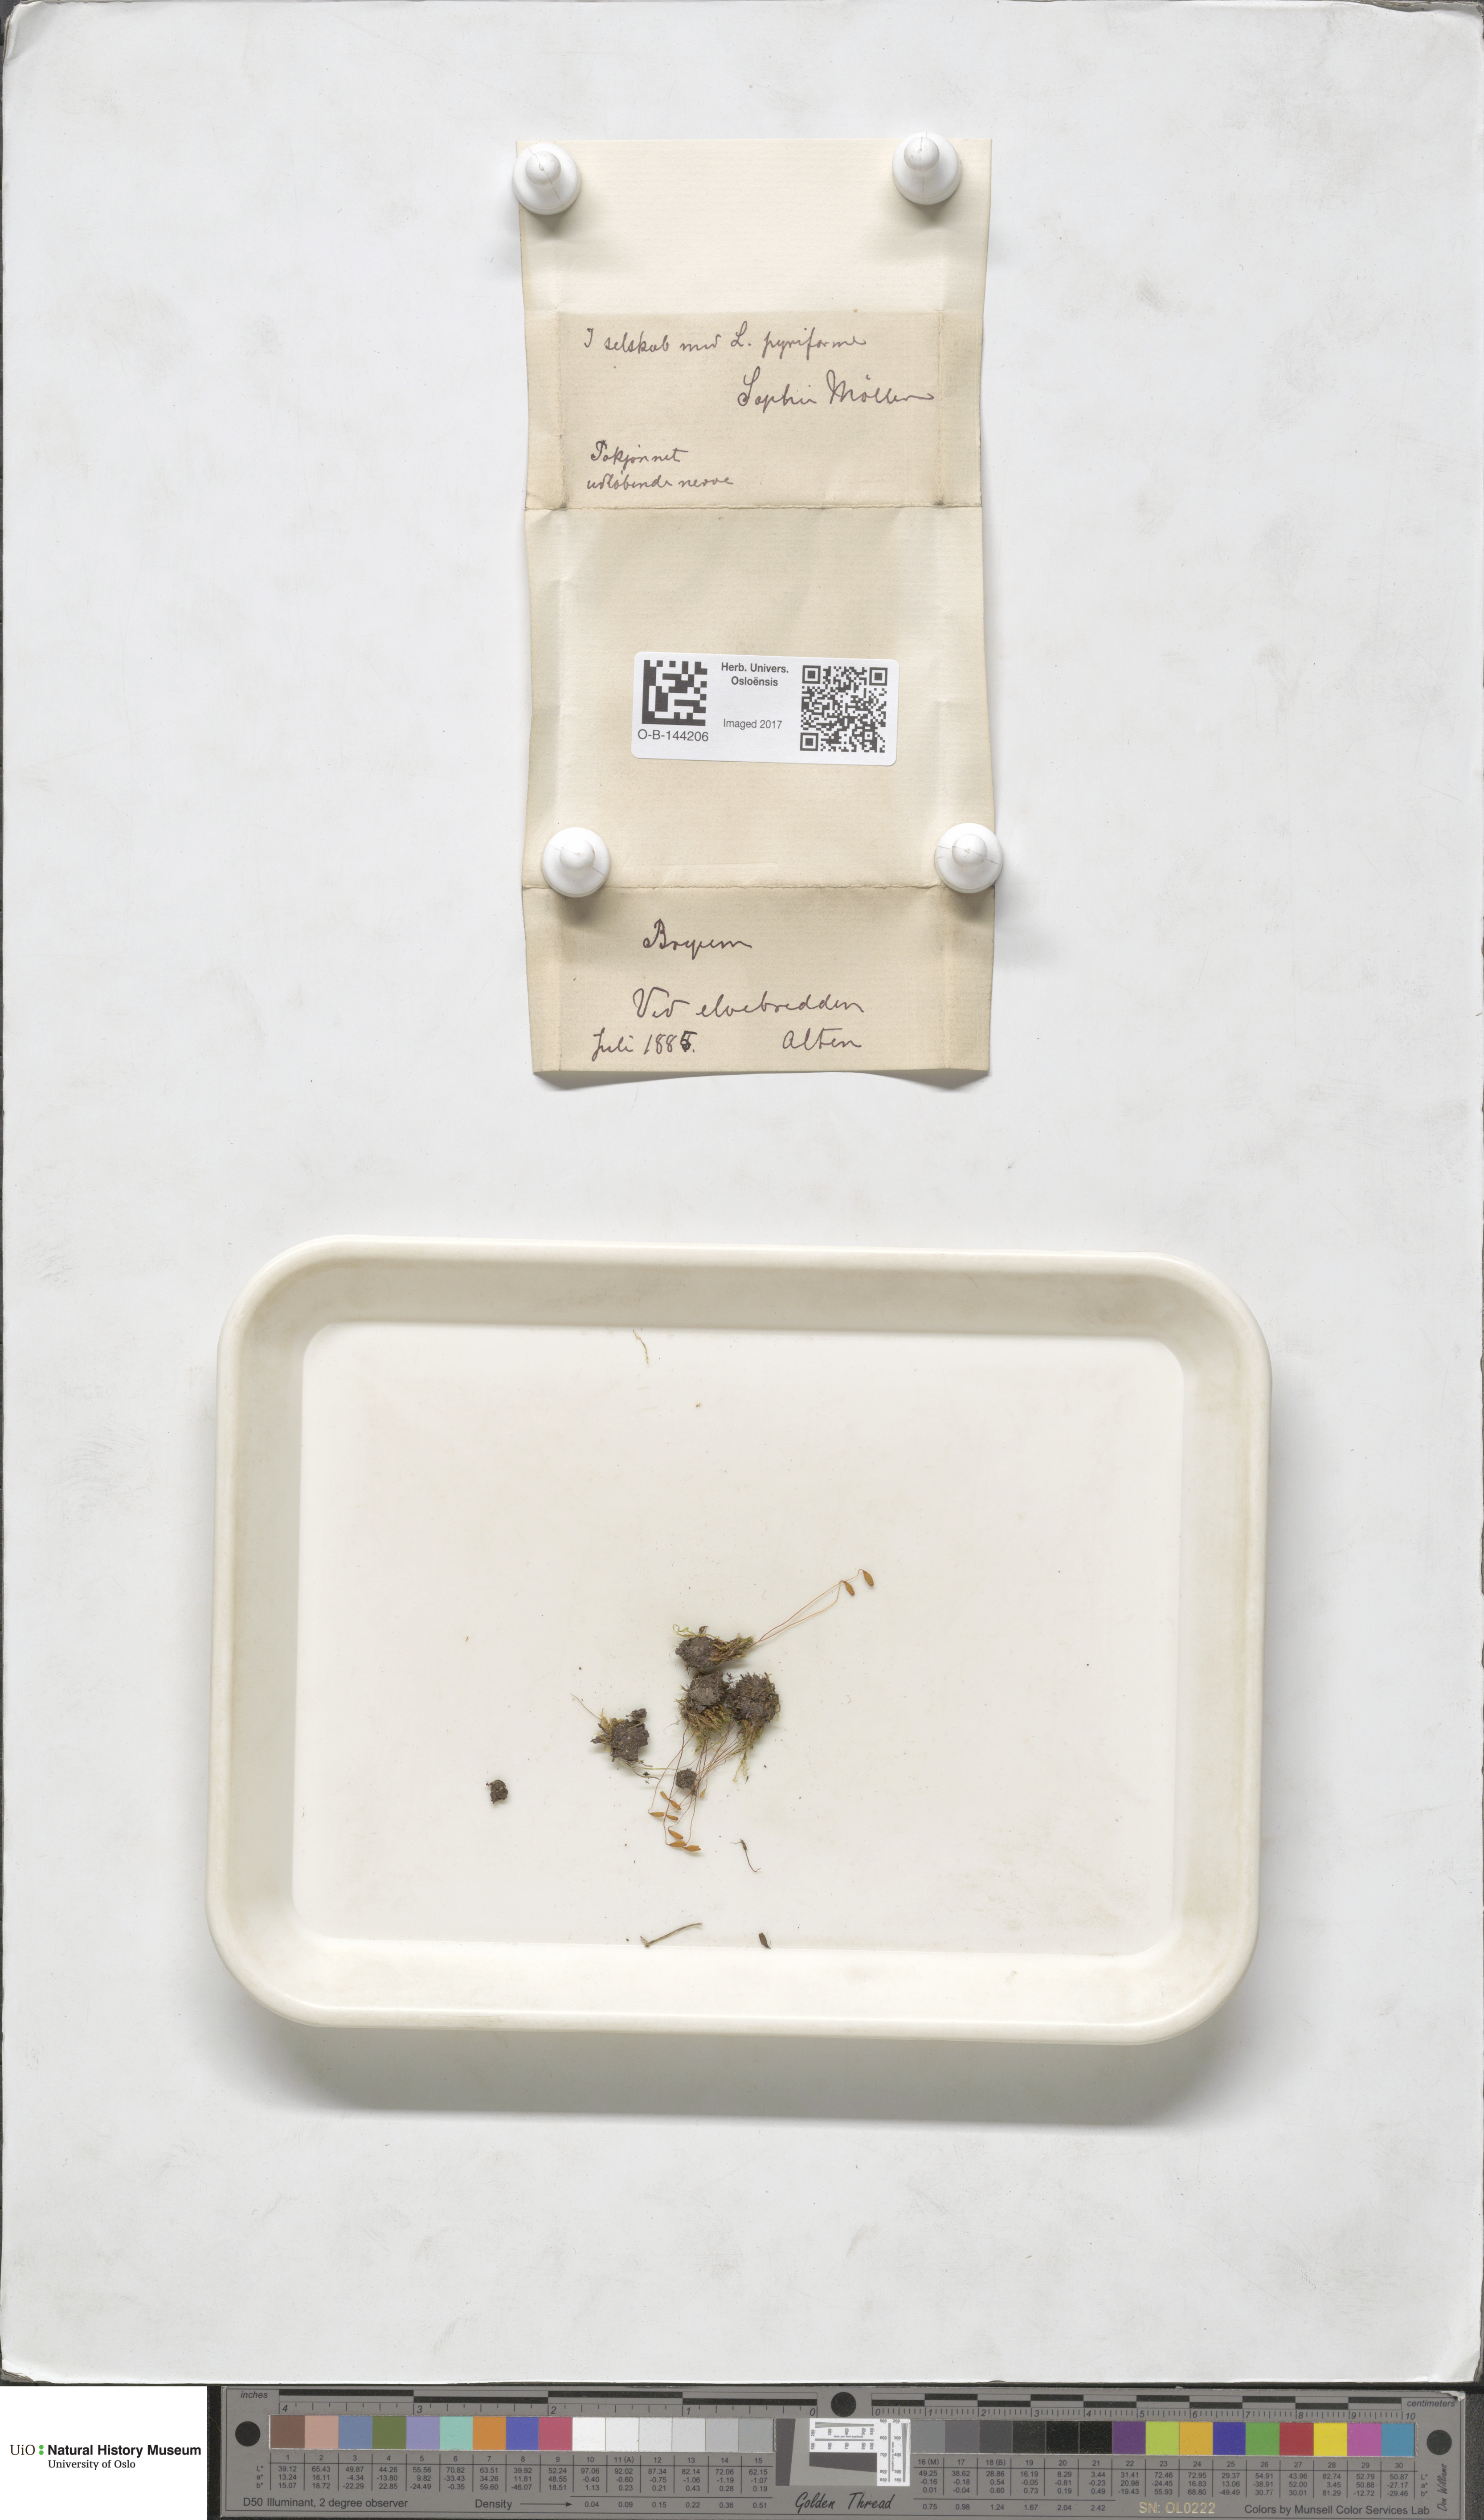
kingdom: Plantae
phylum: Bryophyta
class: Bryopsida
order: Bryales
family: Bryaceae
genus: Bryum
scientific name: Bryum
